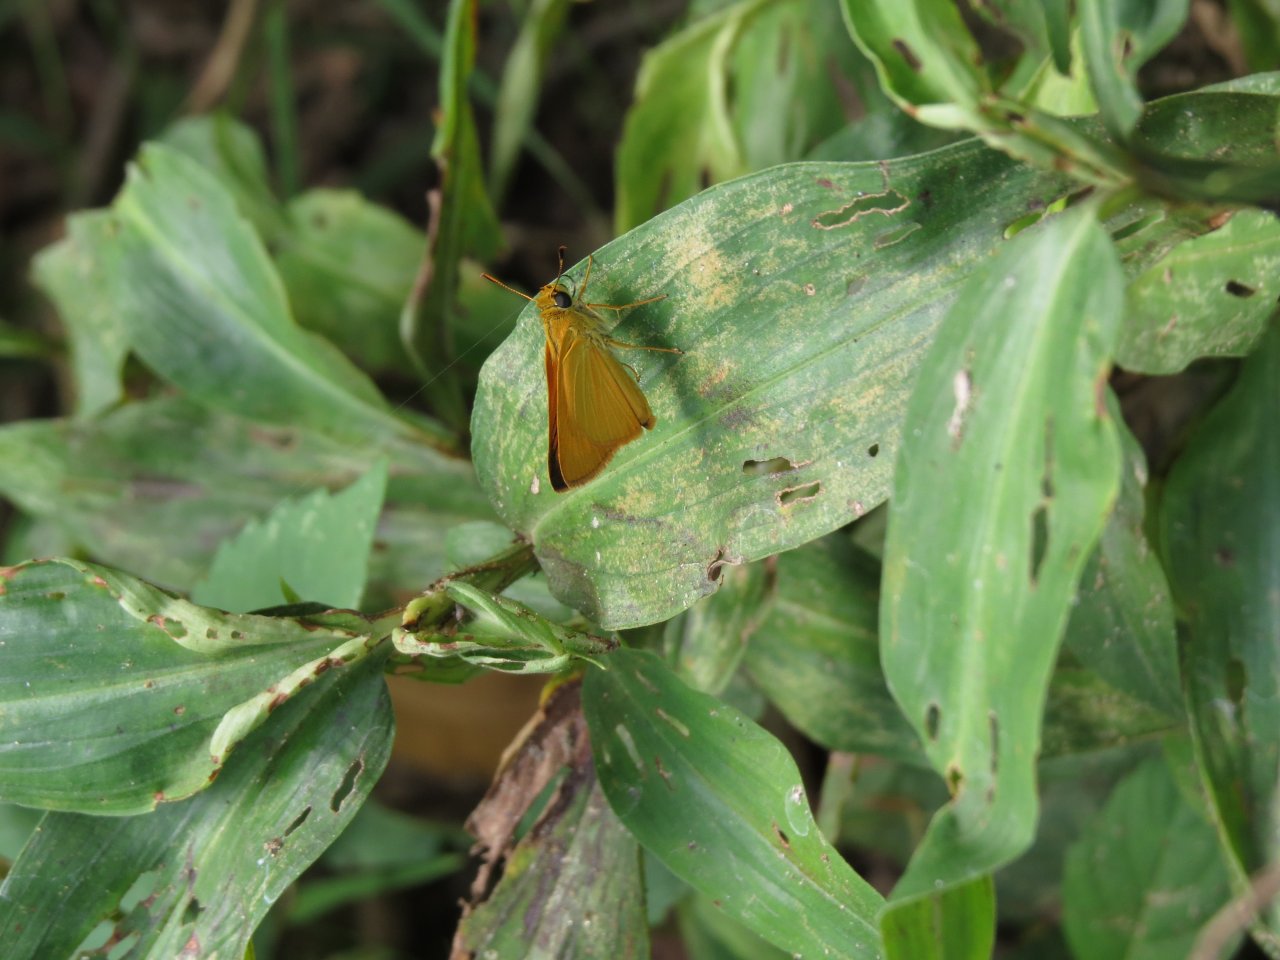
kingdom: Animalia
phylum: Arthropoda
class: Insecta
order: Lepidoptera
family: Hesperiidae
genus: Atrytone
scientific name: Atrytone delaware
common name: Delaware Skipper
